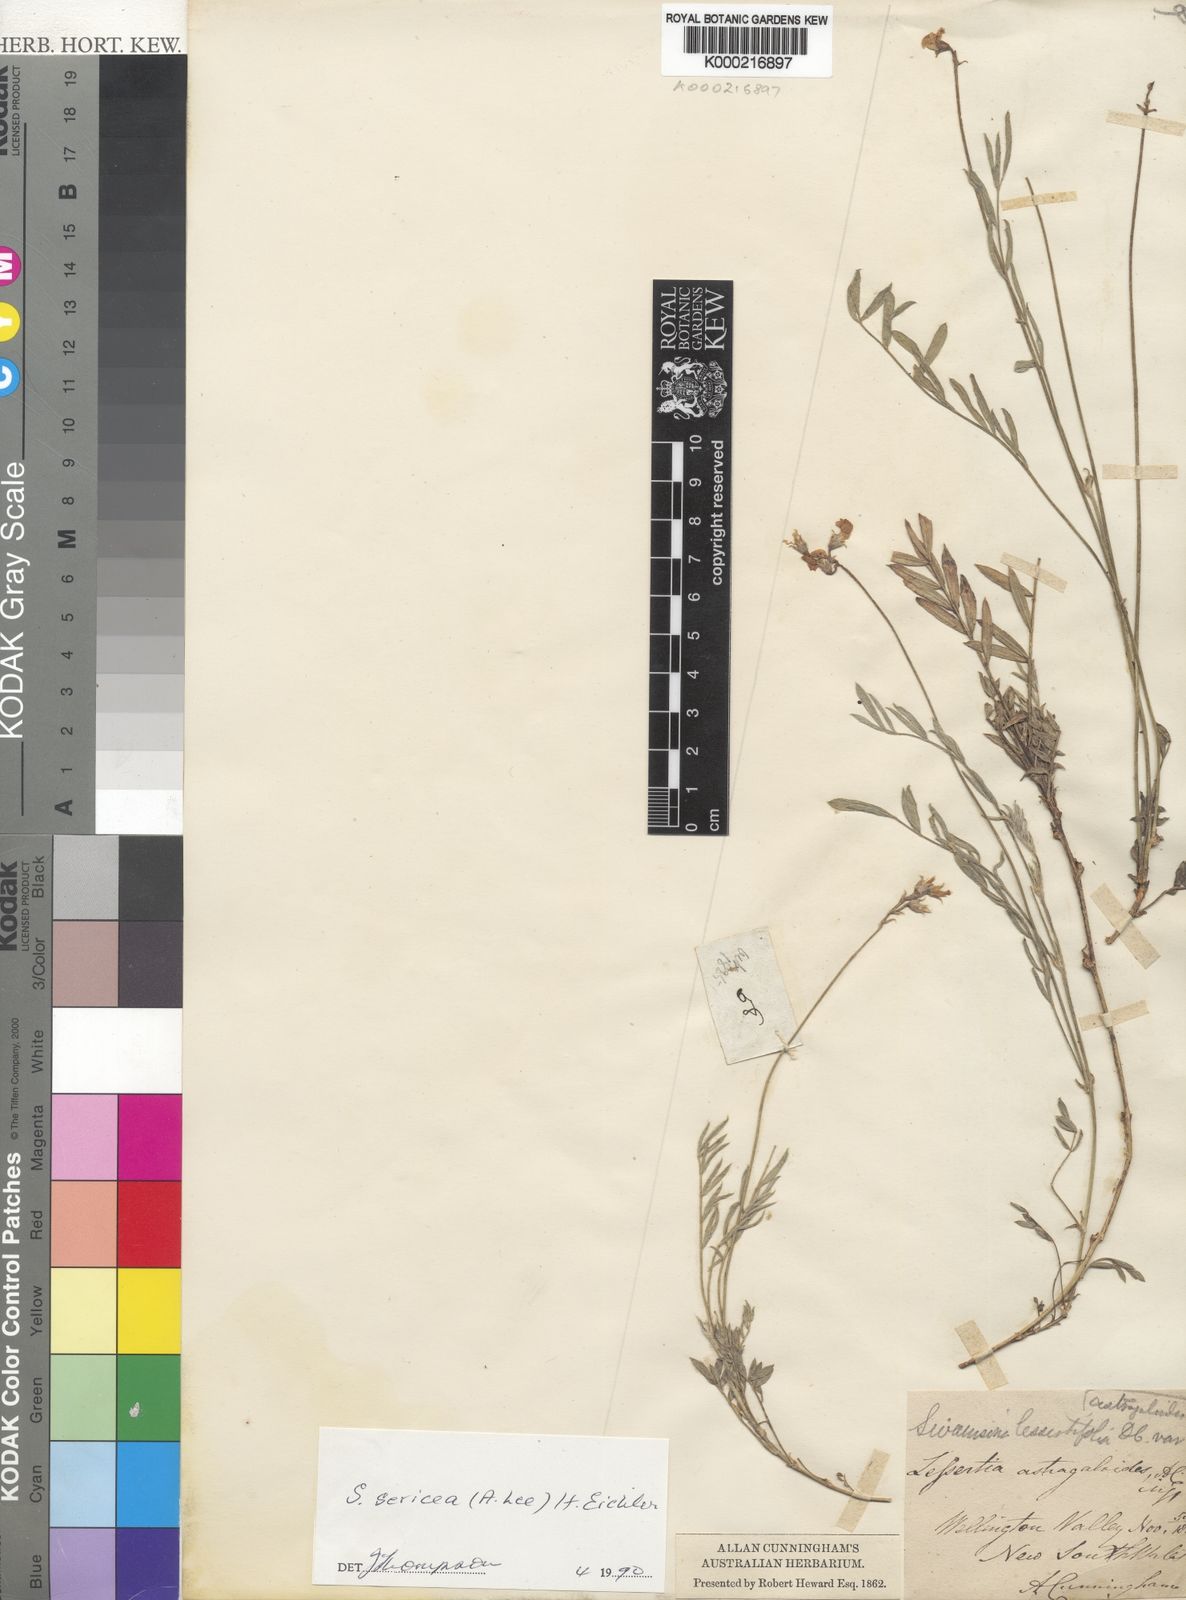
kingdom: Plantae
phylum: Tracheophyta
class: Magnoliopsida
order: Fabales
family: Fabaceae
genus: Swainsona
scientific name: Swainsona sericea
